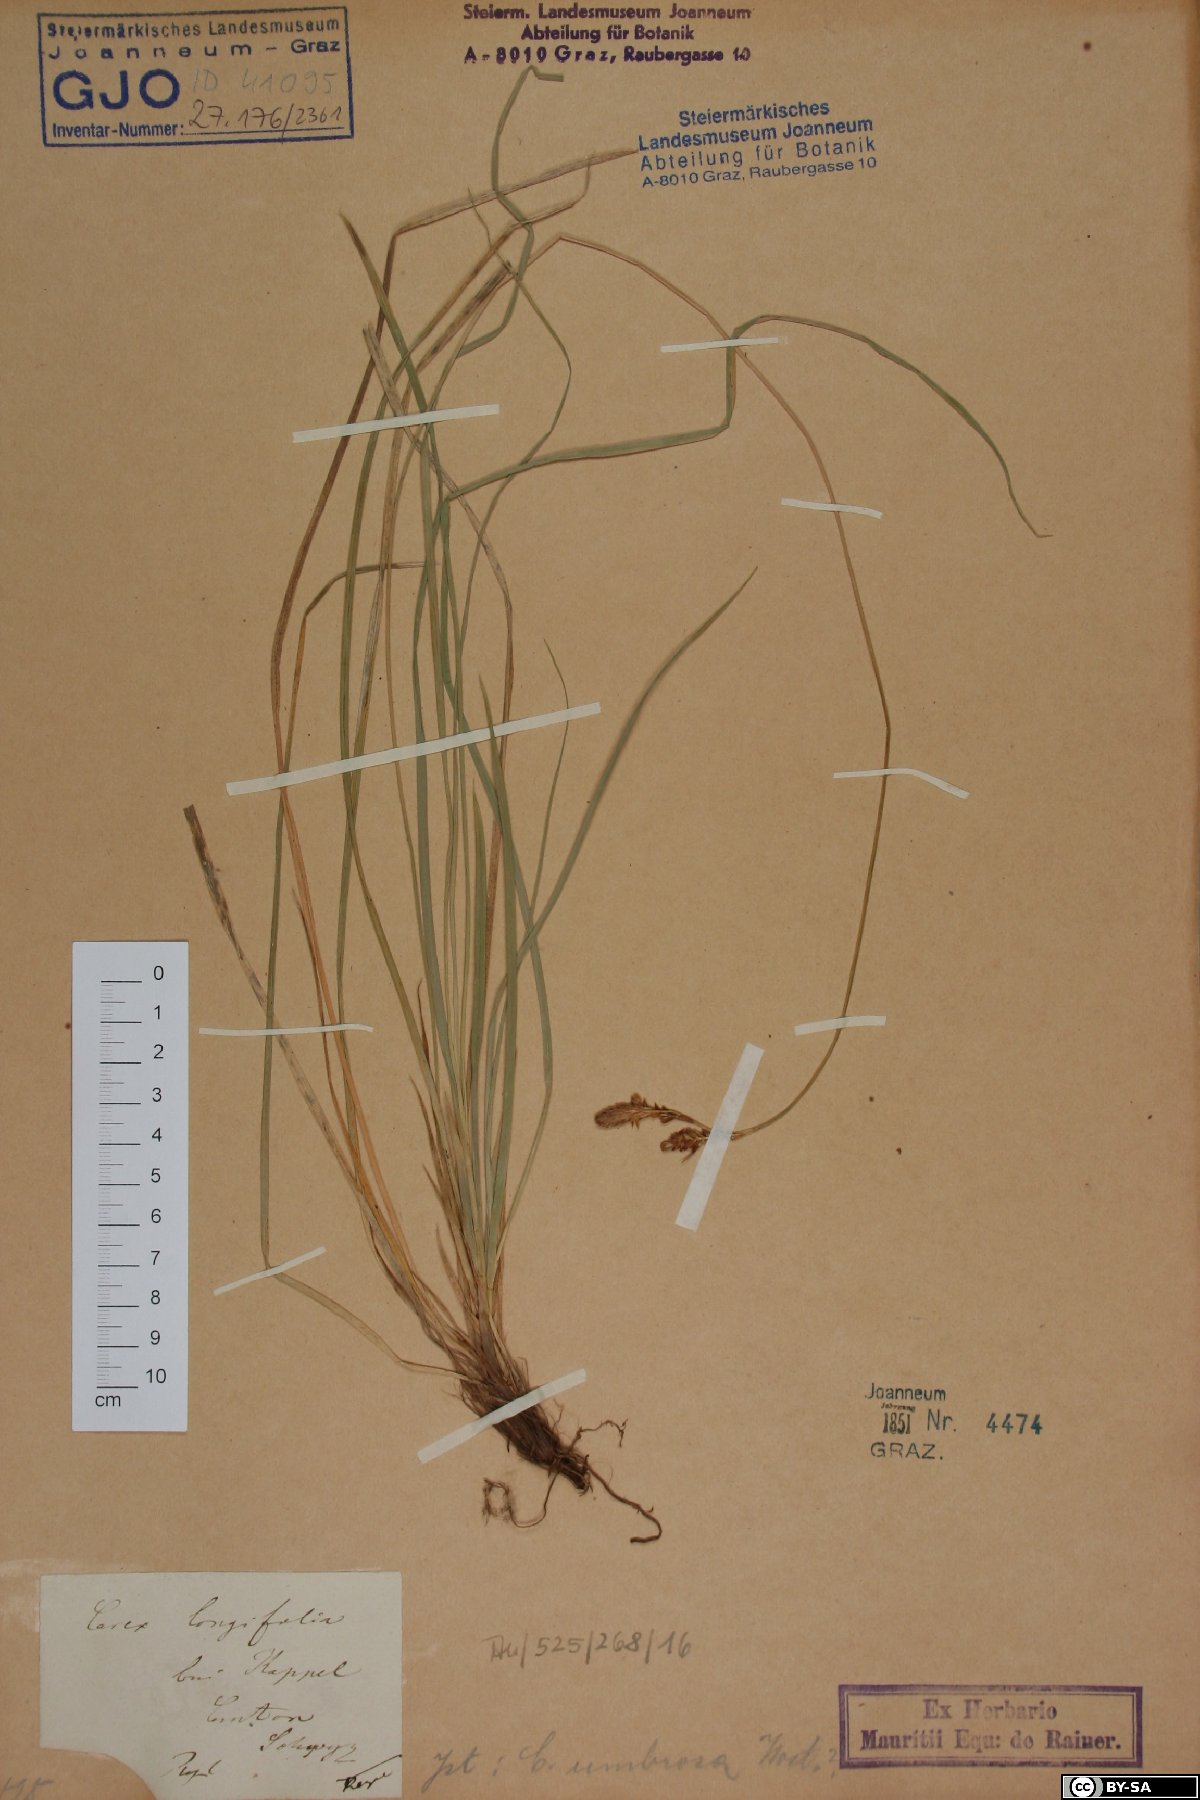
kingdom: Plantae
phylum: Tracheophyta
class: Liliopsida
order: Poales
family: Cyperaceae
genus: Carex
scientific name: Carex umbrosa
